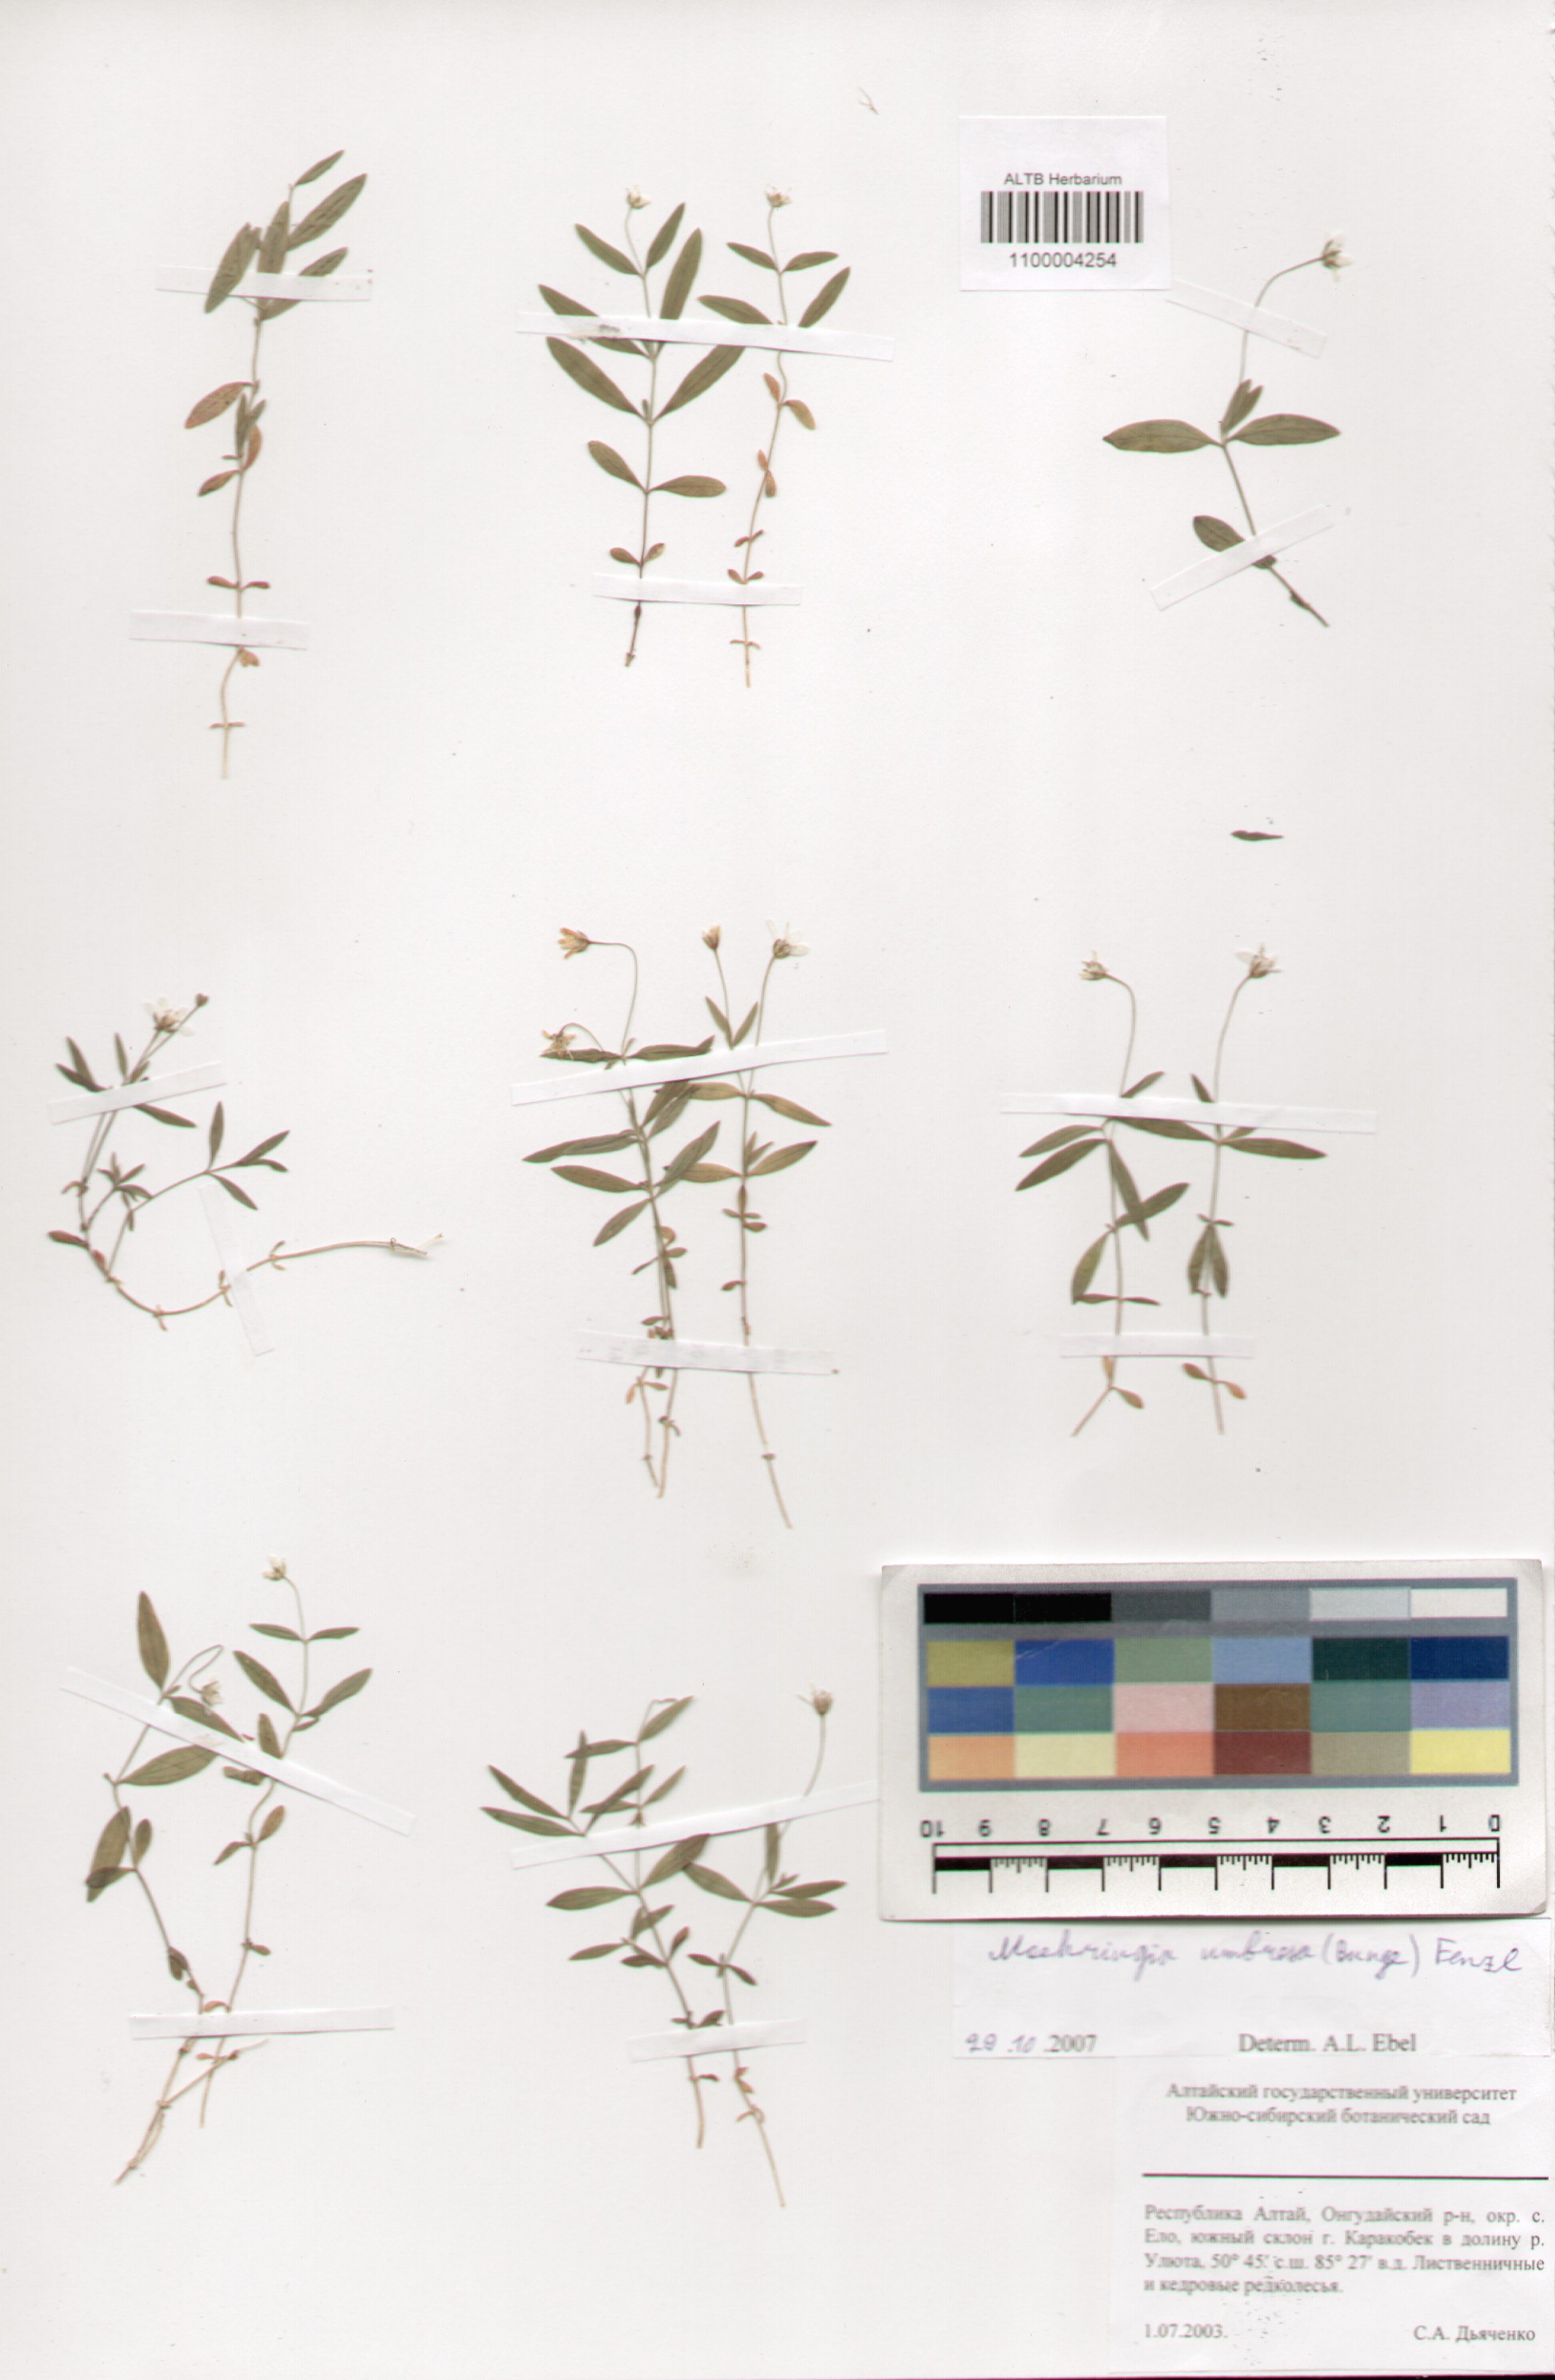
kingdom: Plantae
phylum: Tracheophyta
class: Magnoliopsida
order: Caryophyllales
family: Caryophyllaceae
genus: Moehringia
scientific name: Moehringia umbrosa
